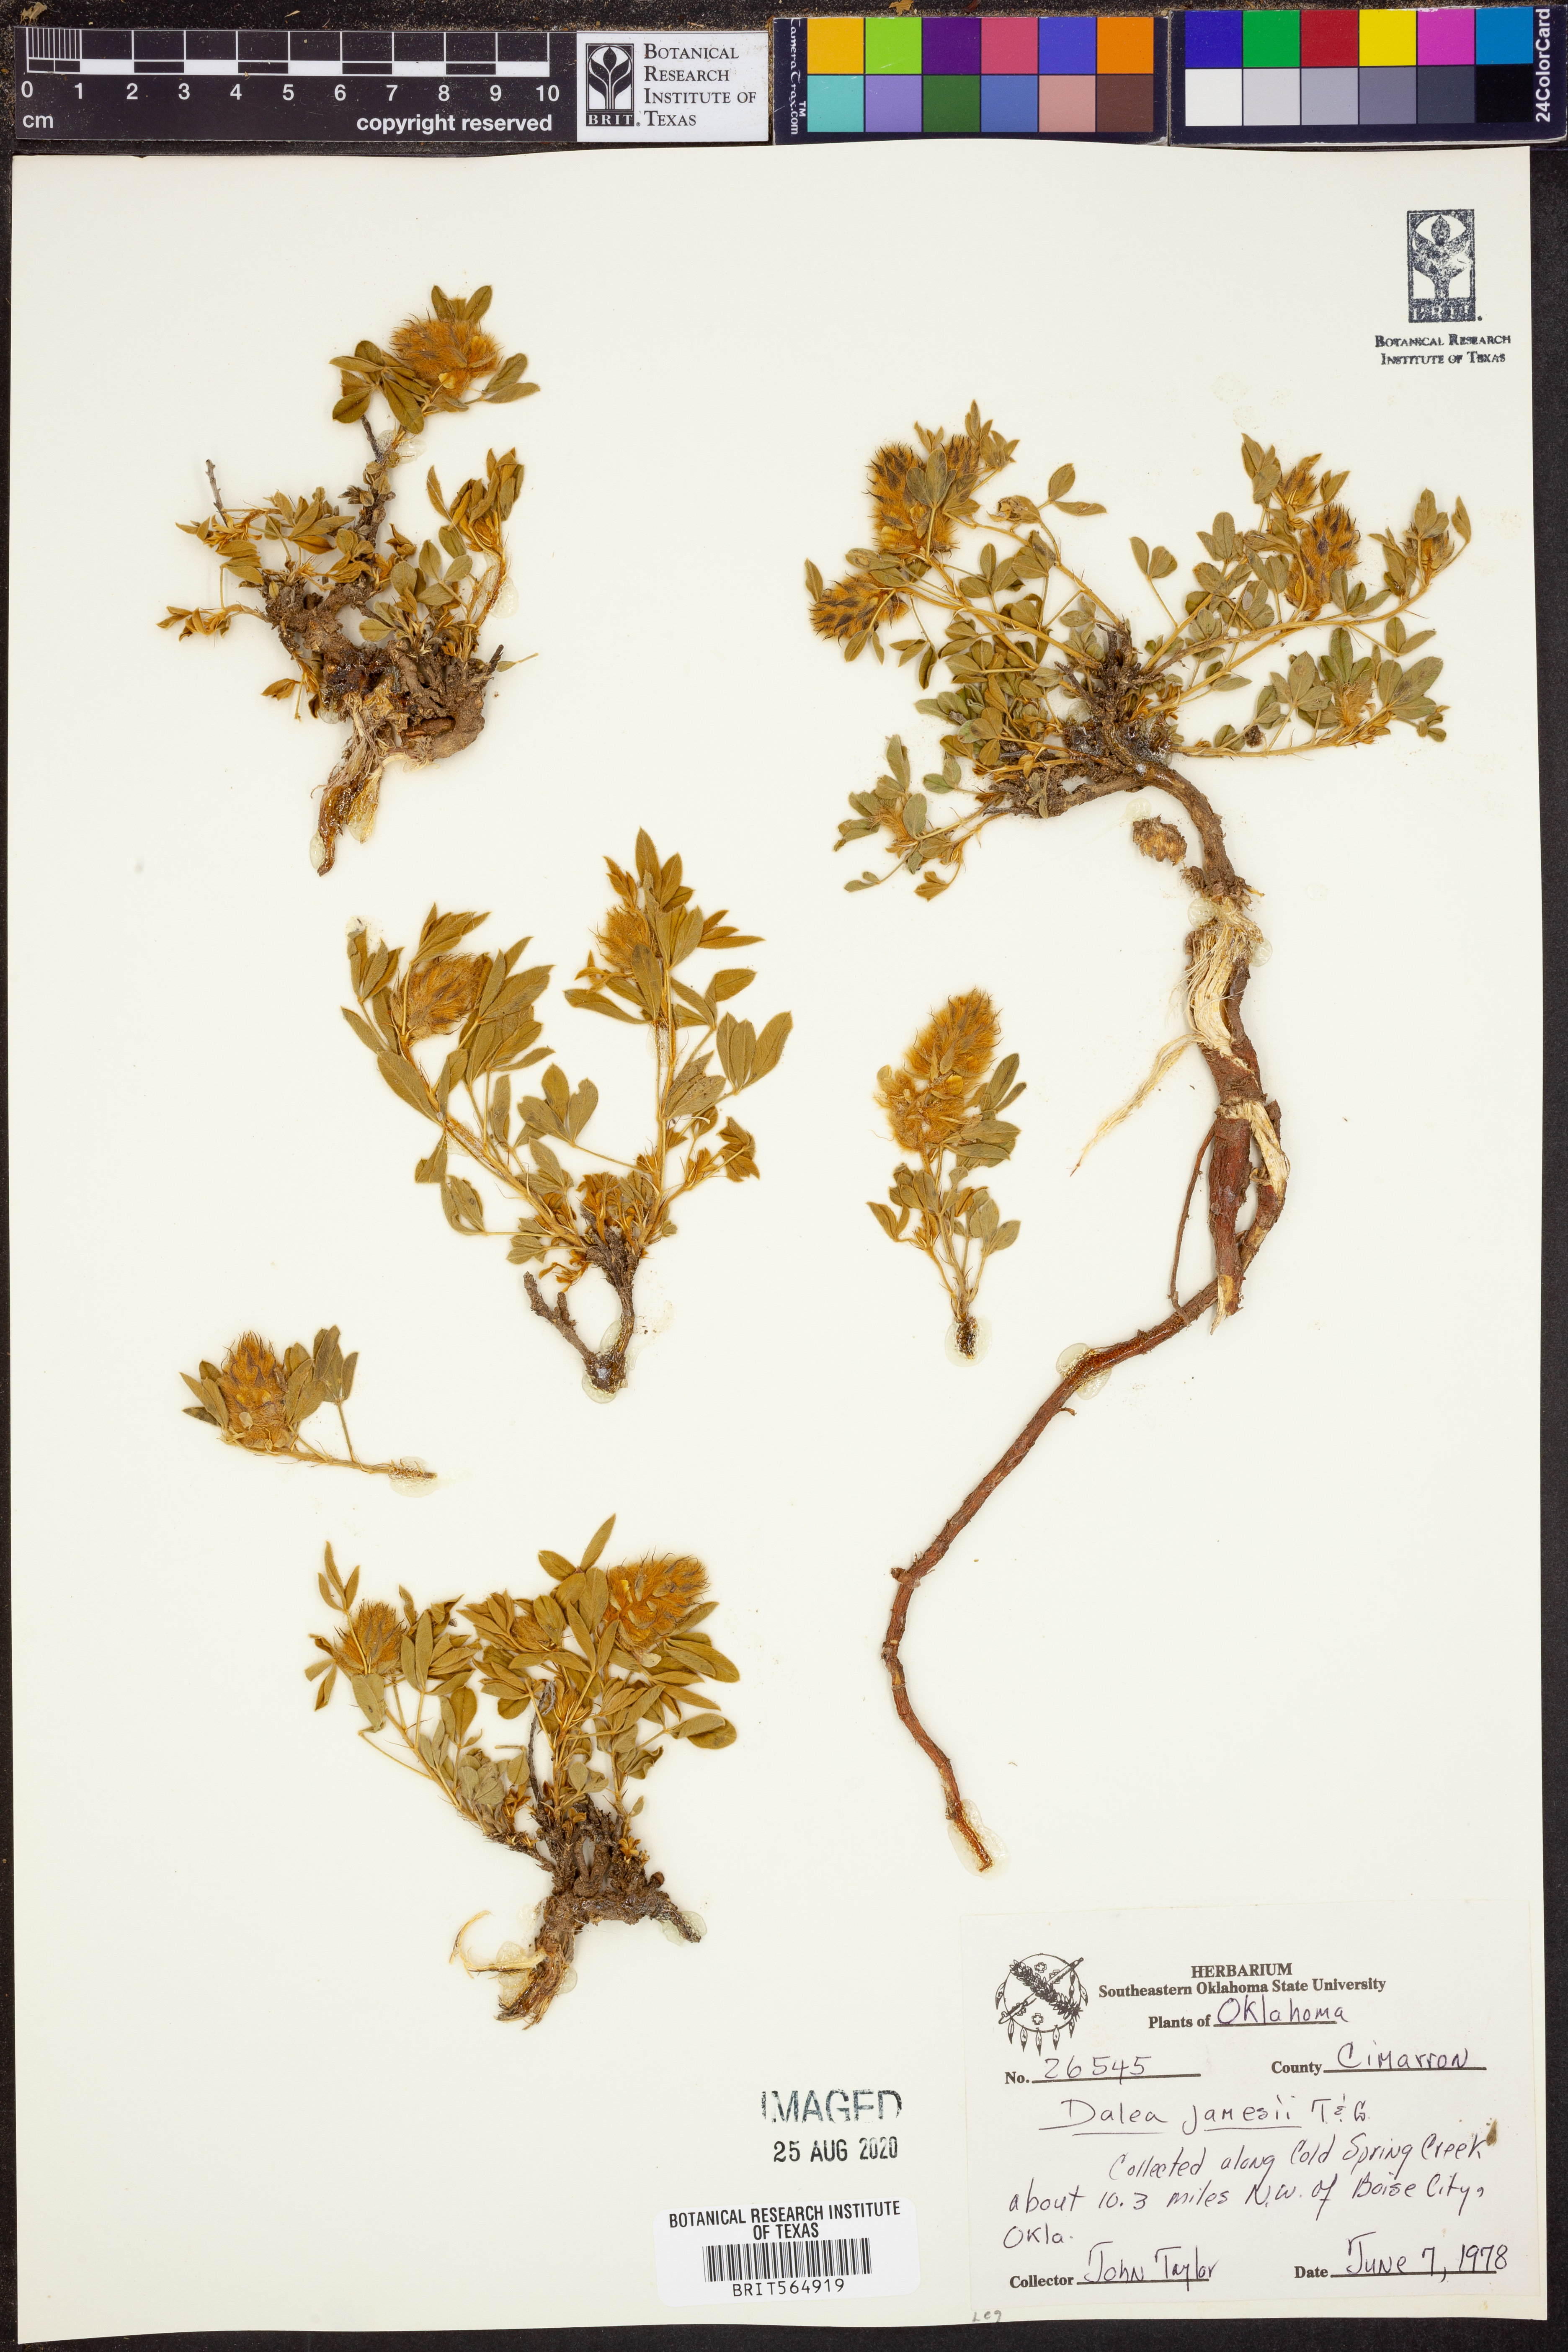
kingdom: Plantae
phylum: Tracheophyta
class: Magnoliopsida
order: Fabales
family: Fabaceae
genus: Dalea
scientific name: Dalea jamesii
